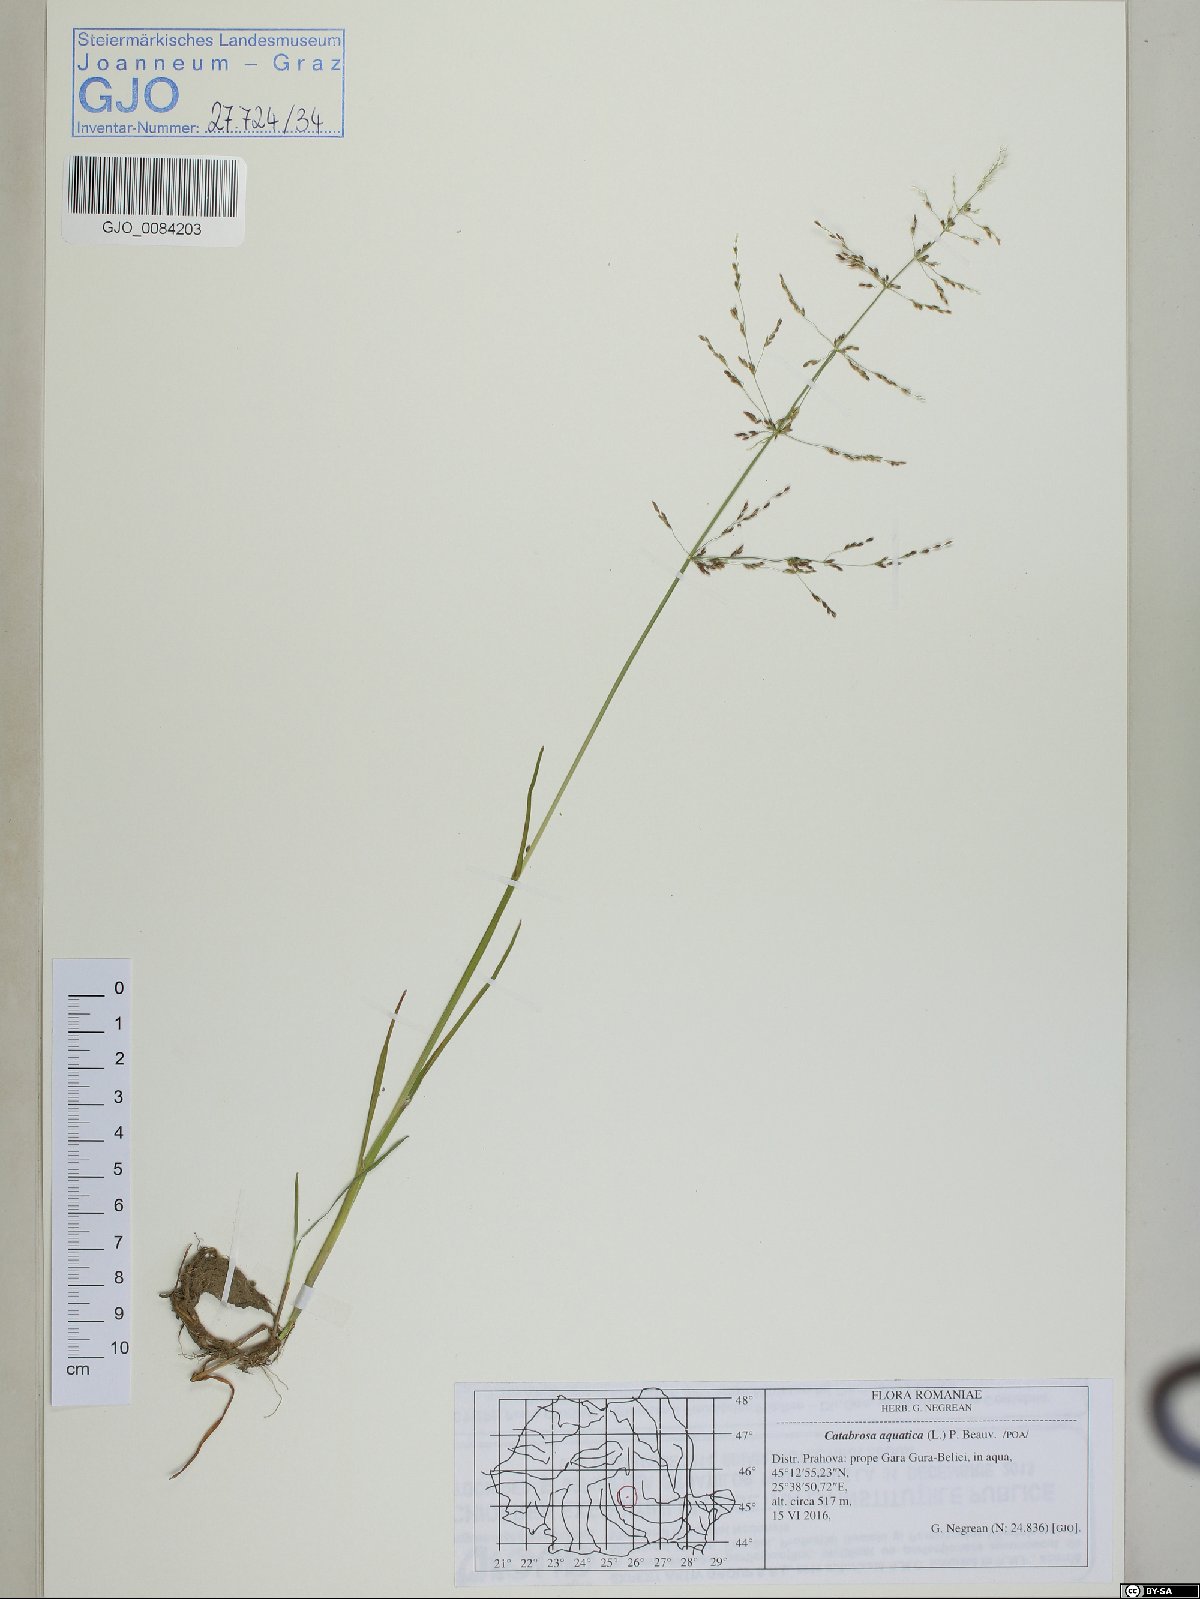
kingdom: Plantae
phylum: Tracheophyta
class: Liliopsida
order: Poales
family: Poaceae
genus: Catabrosa
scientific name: Catabrosa aquatica
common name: Whorl-grass
